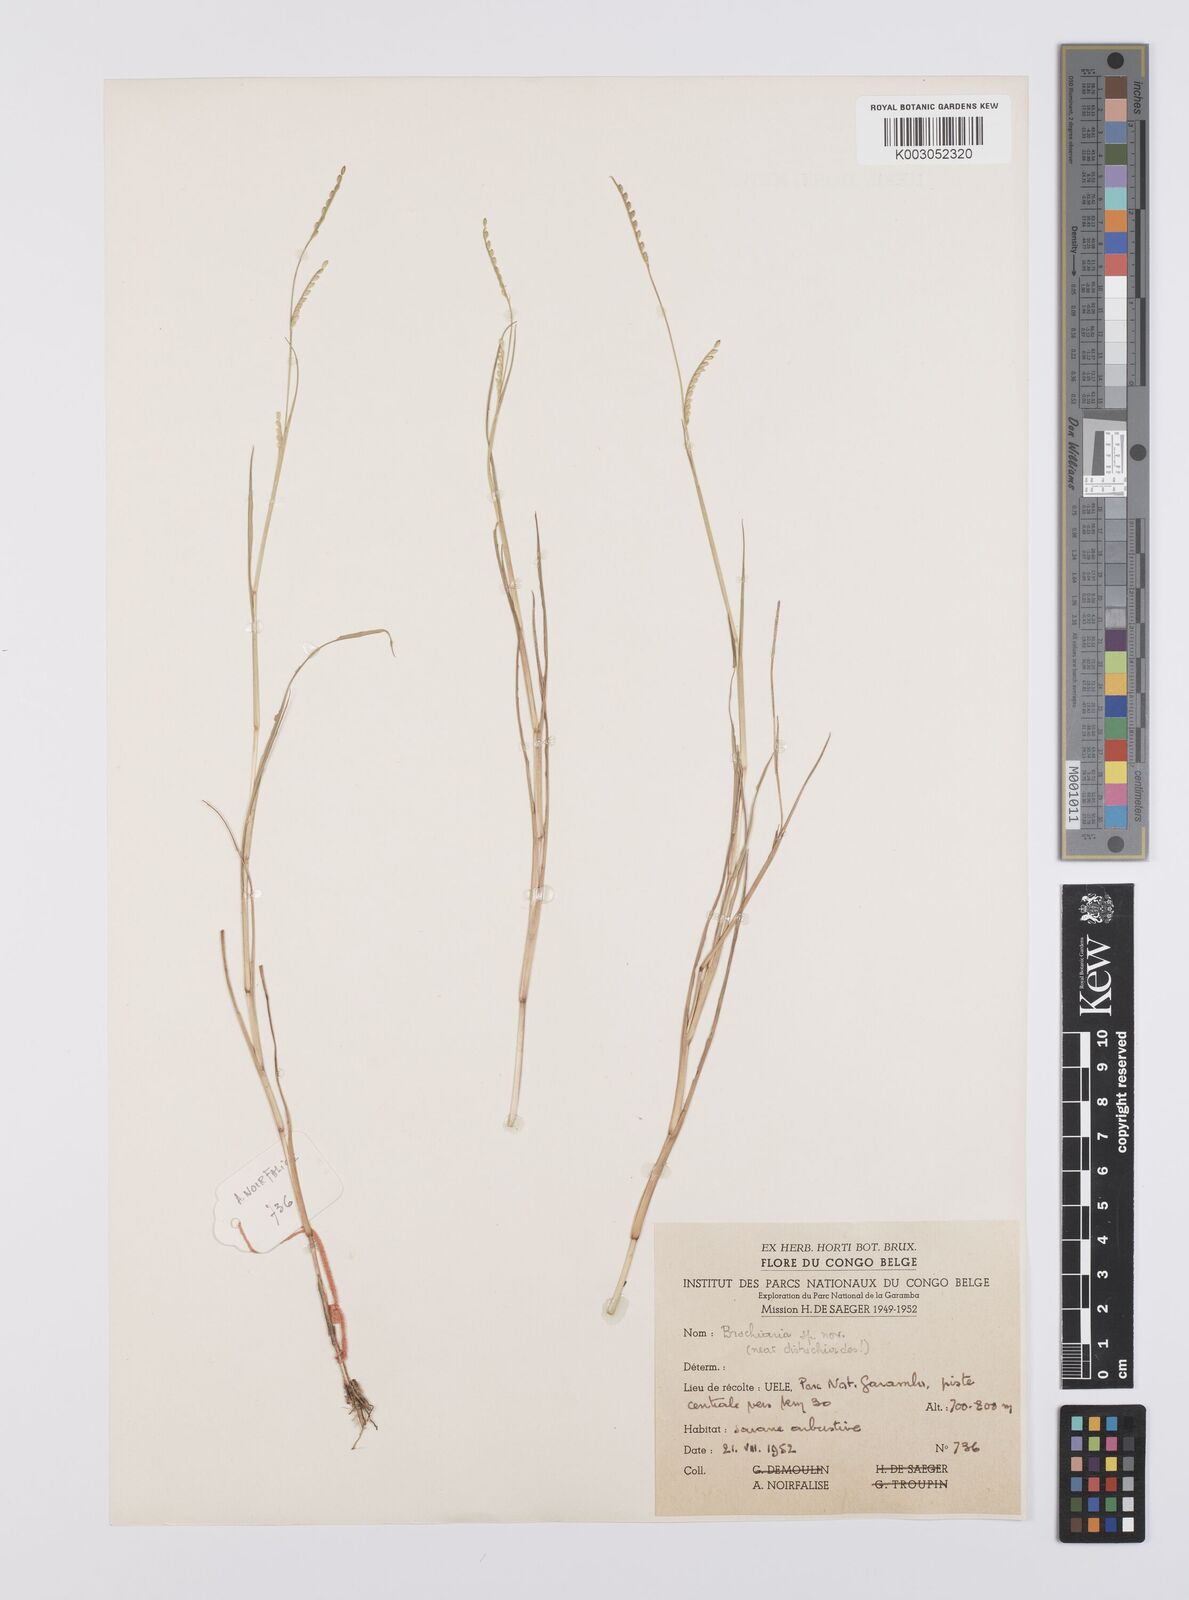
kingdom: Plantae
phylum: Tracheophyta
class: Liliopsida
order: Poales
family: Poaceae
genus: Urochloa
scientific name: Urochloa distachyoides
